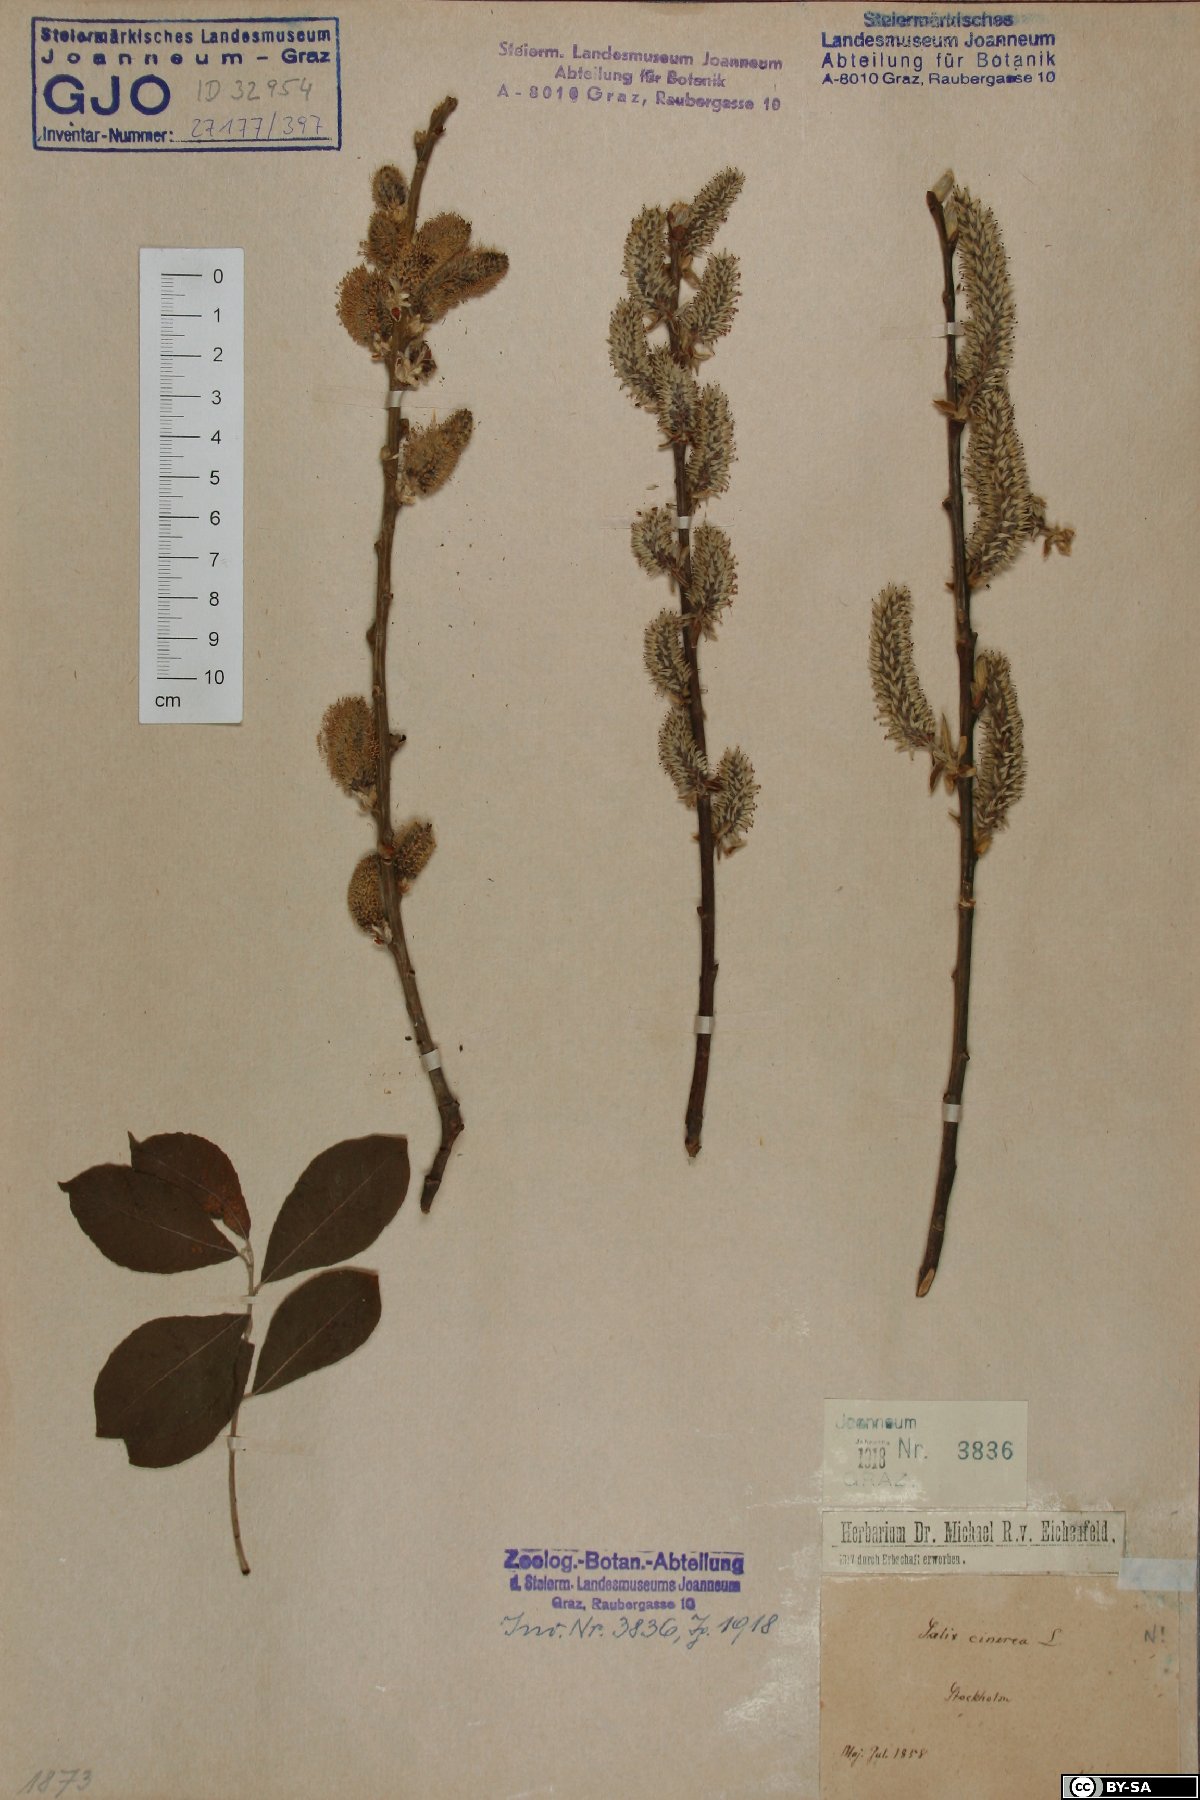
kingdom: Plantae
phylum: Tracheophyta
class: Magnoliopsida
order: Malpighiales
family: Salicaceae
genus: Salix
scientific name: Salix cinerea
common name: Common sallow
